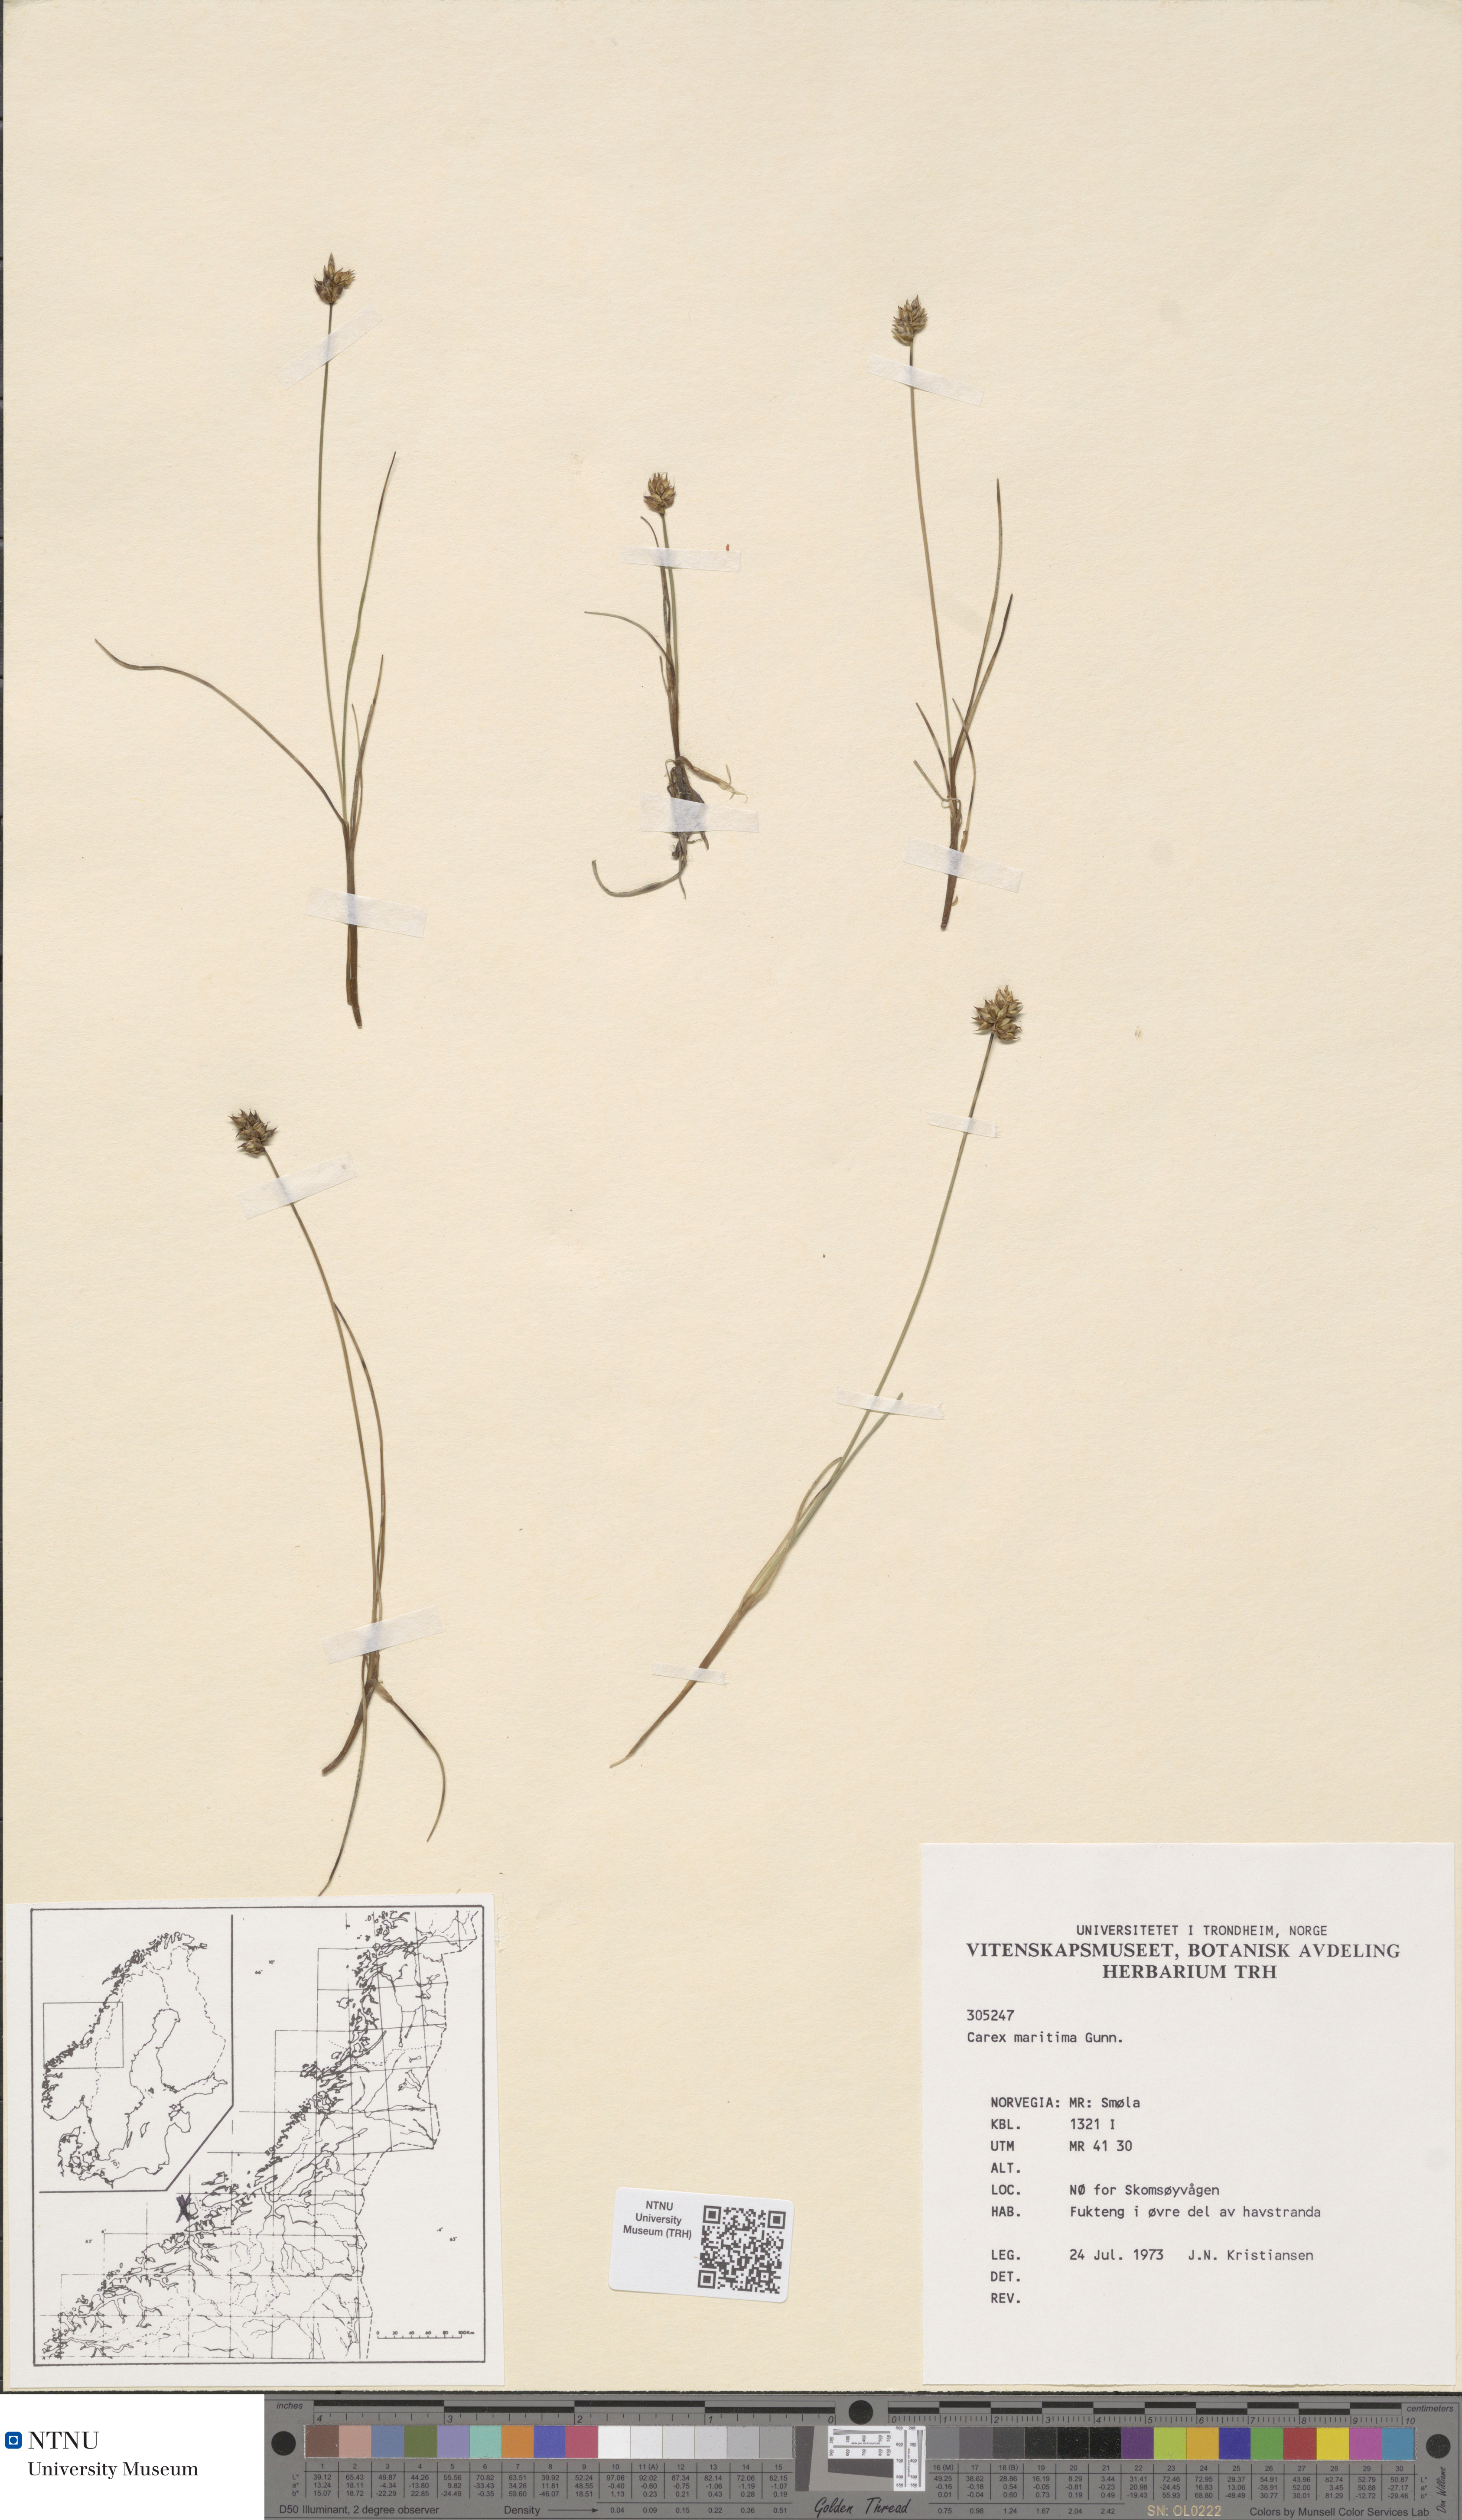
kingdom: Plantae
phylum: Tracheophyta
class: Liliopsida
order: Poales
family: Cyperaceae
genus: Carex
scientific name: Carex maritima
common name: Curved sedge
